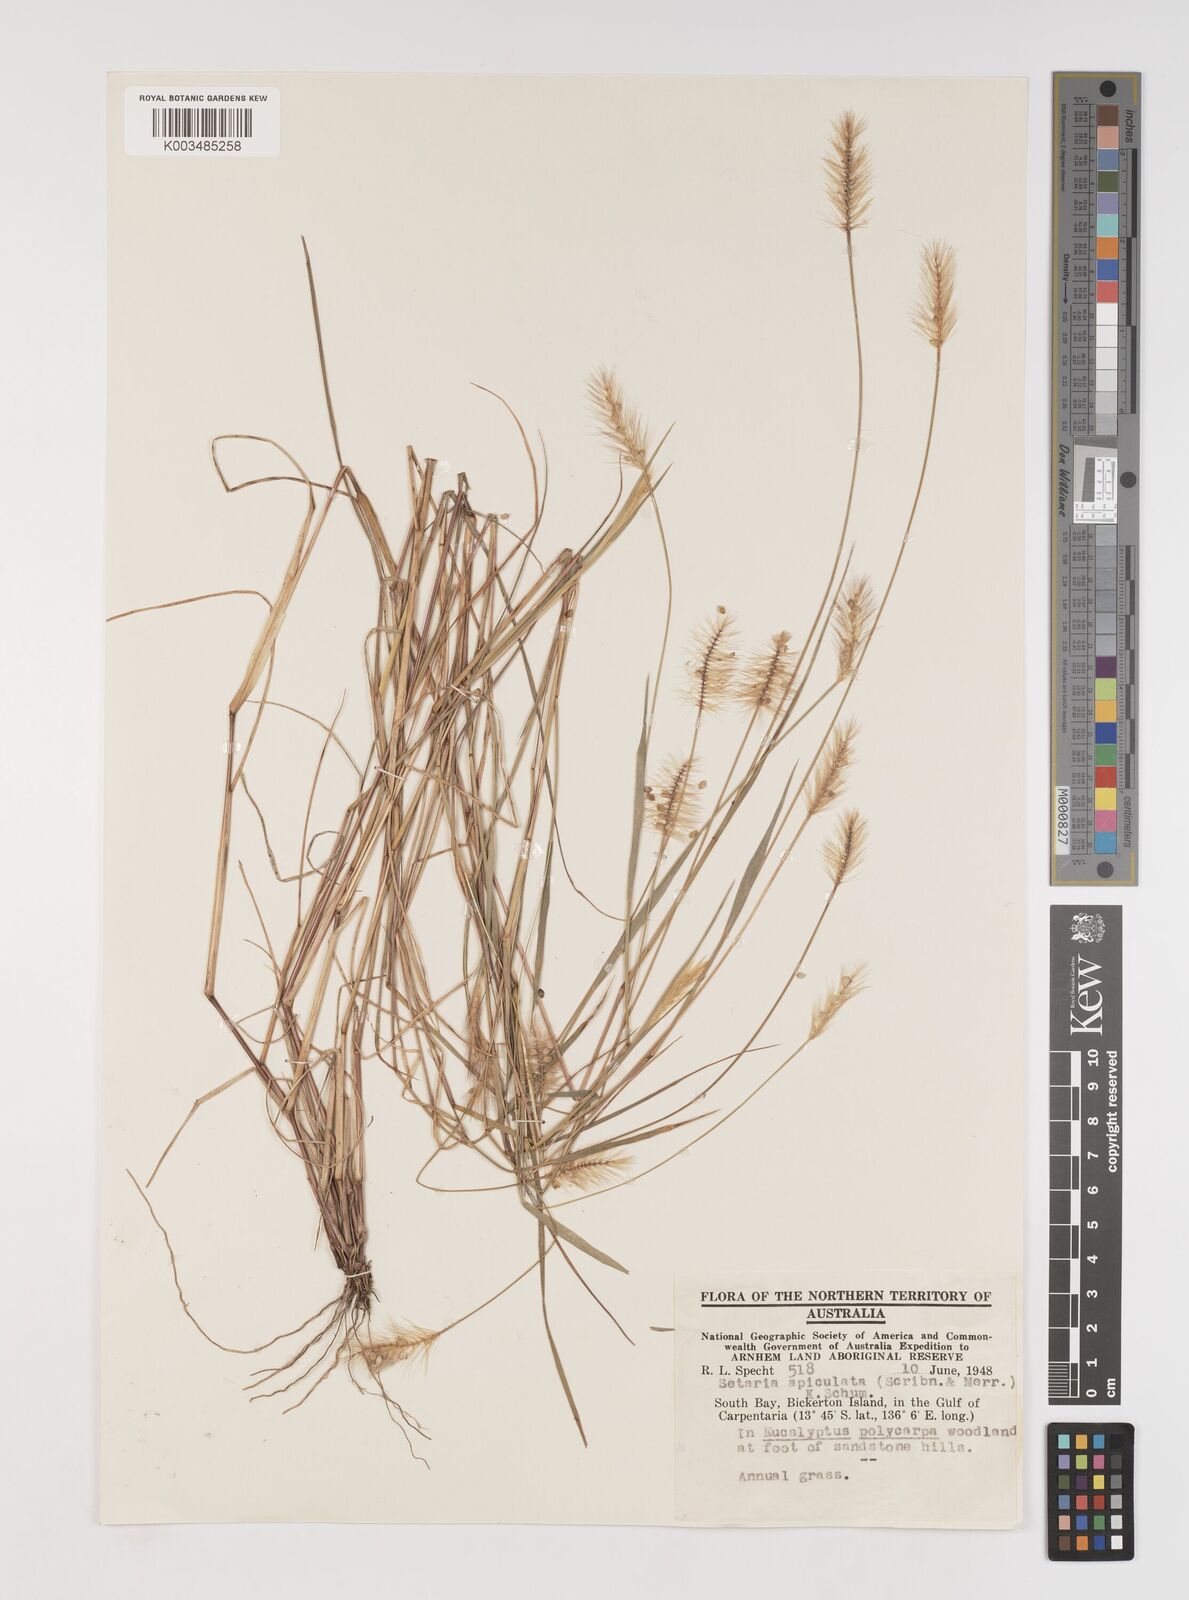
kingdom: Plantae
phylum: Tracheophyta
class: Liliopsida
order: Poales
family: Poaceae
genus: Setaria
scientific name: Setaria apiculata
